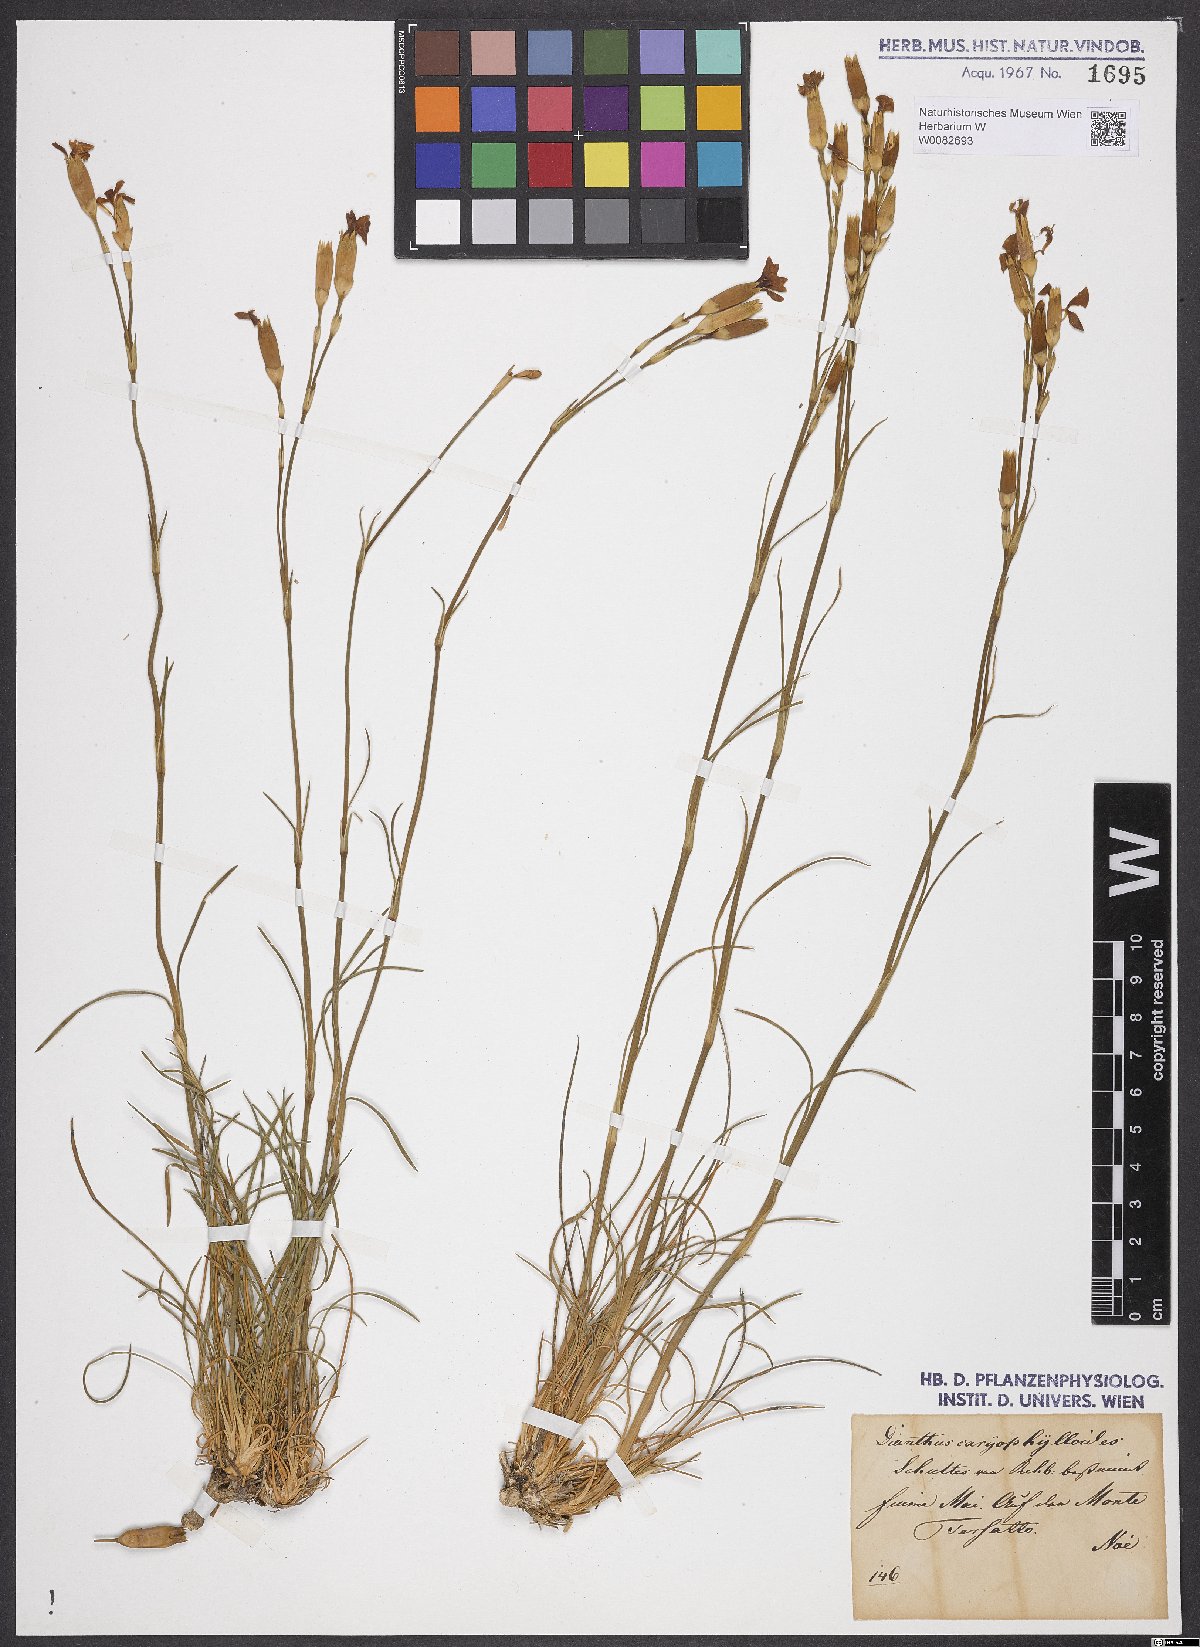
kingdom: Plantae
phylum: Tracheophyta
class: Magnoliopsida
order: Caryophyllales
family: Caryophyllaceae
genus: Dianthus
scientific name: Dianthus sylvestris
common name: Wood pink
